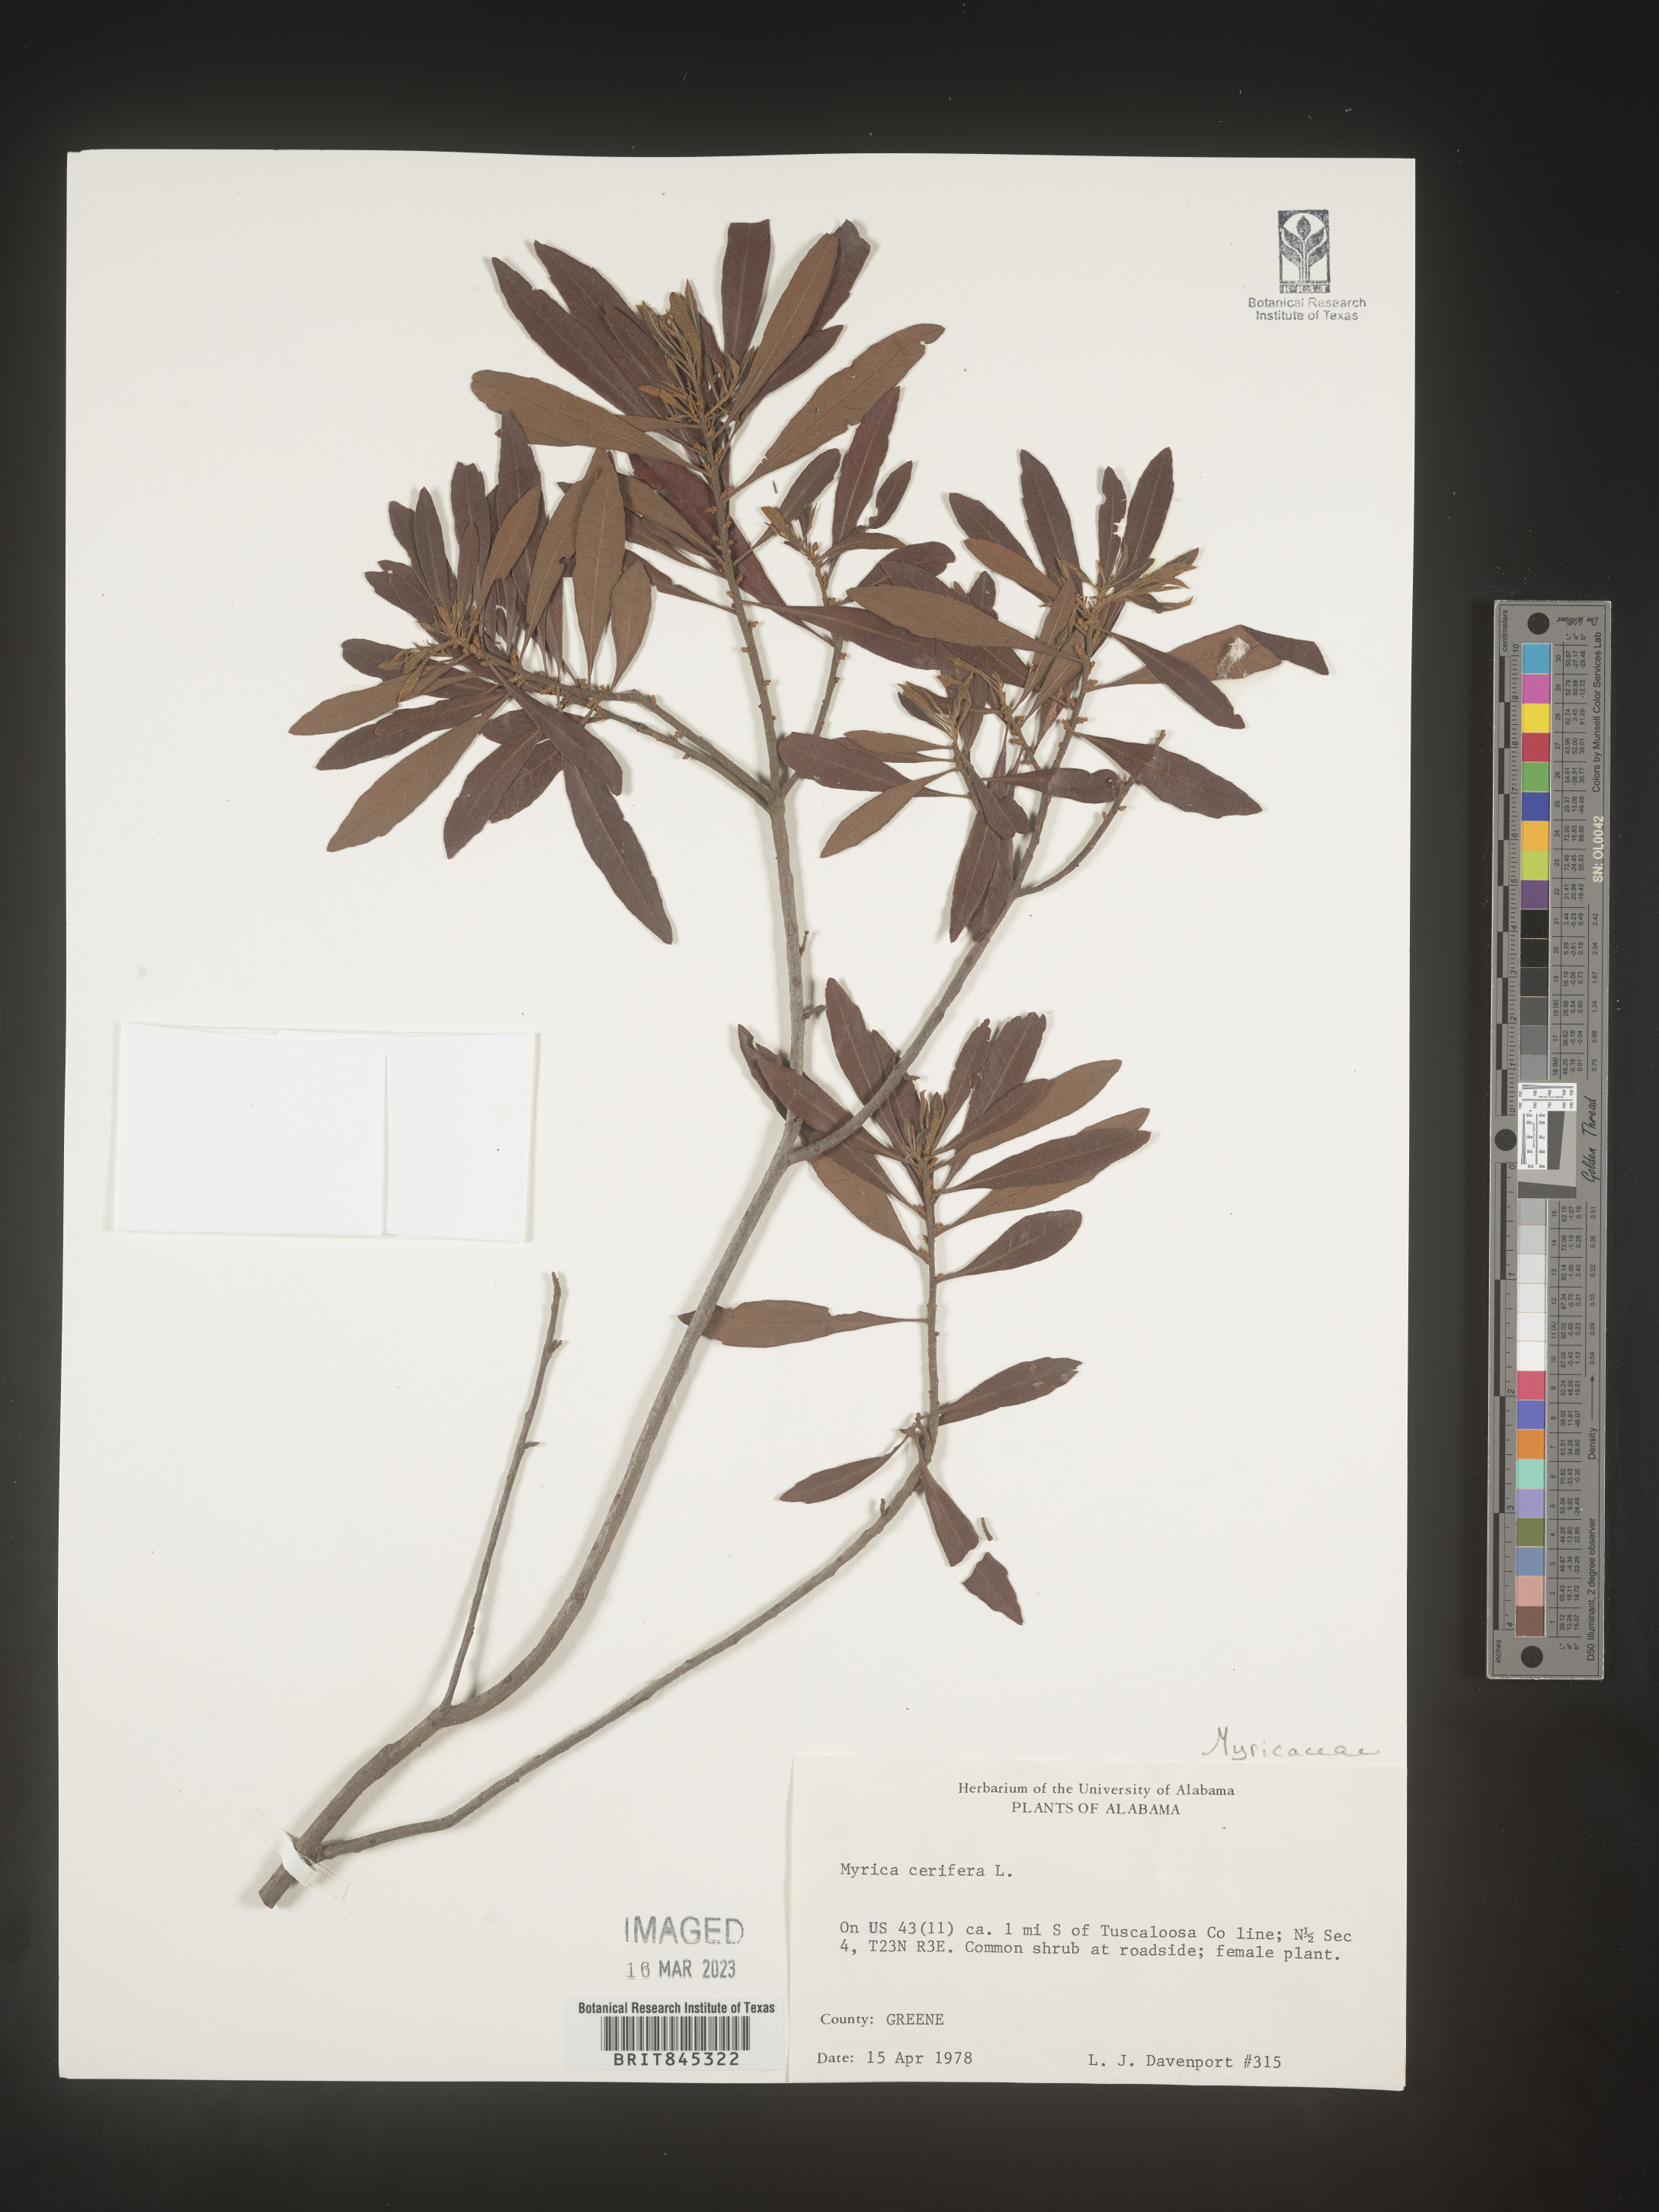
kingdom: Plantae
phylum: Tracheophyta
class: Magnoliopsida
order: Fagales
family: Myricaceae
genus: Morella
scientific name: Morella cerifera
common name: Wax myrtle
